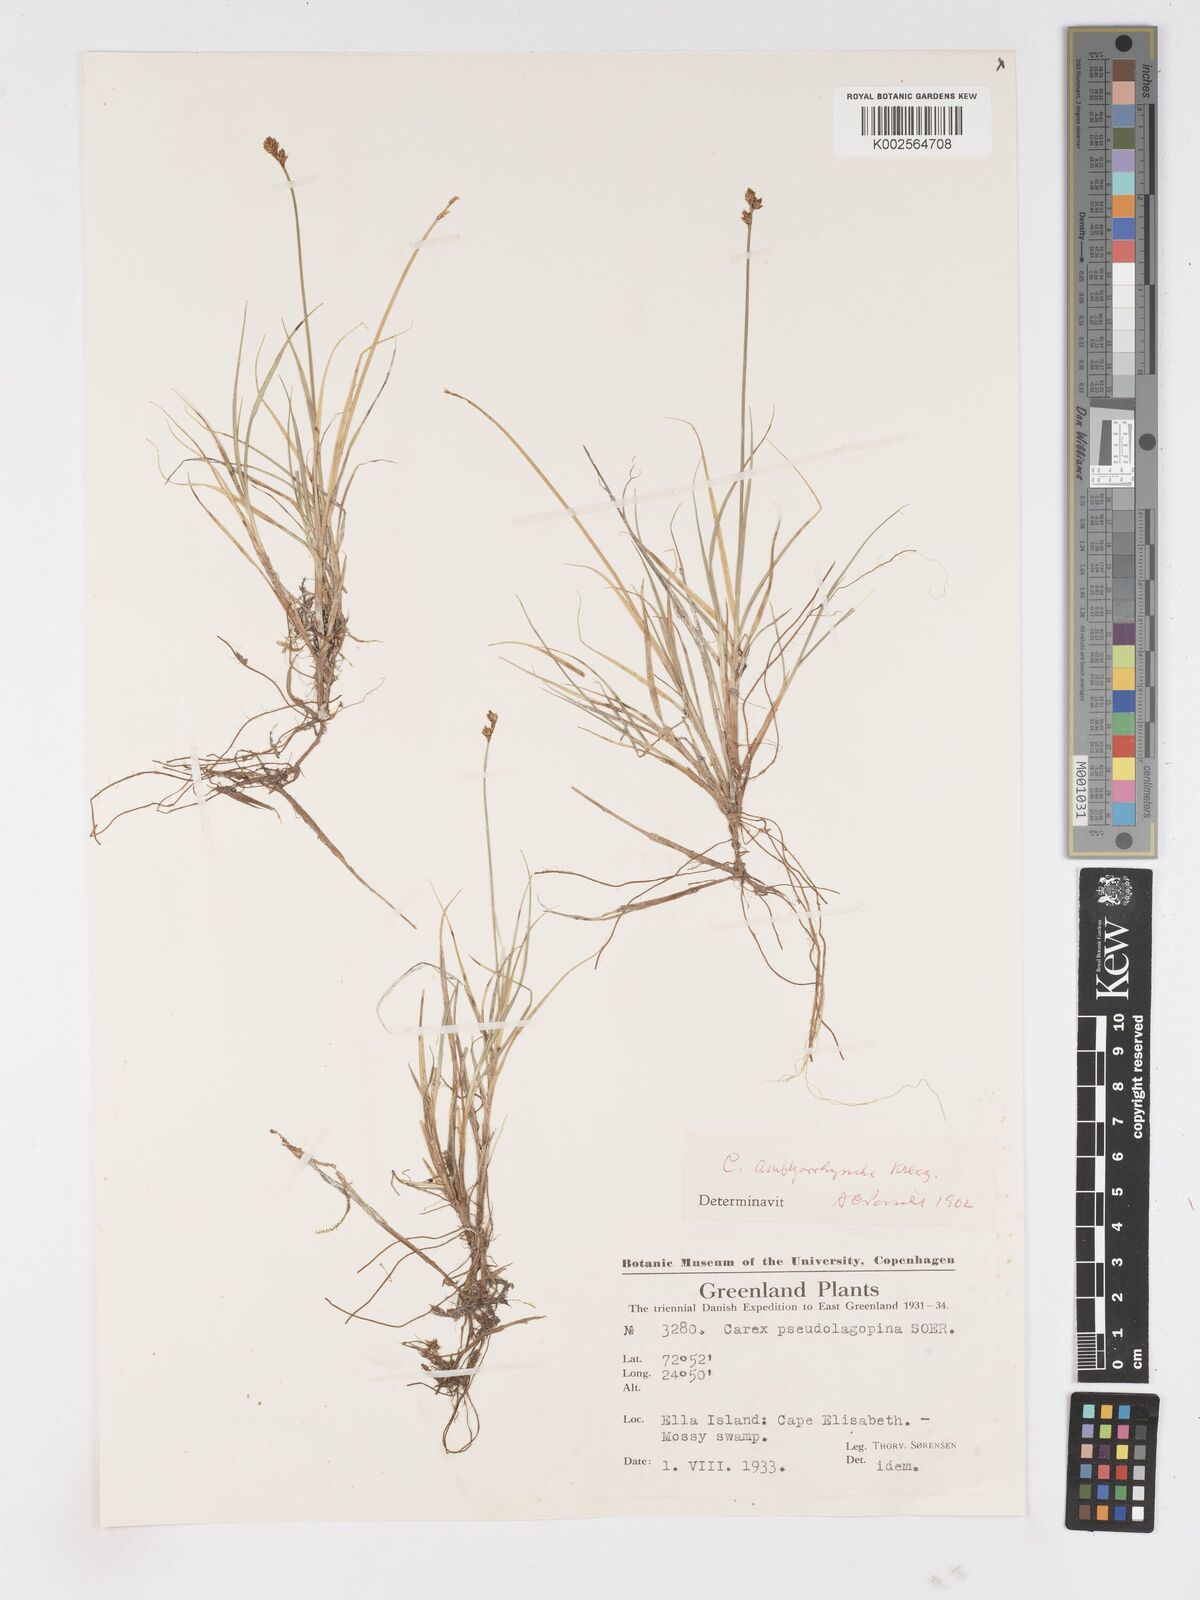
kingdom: Plantae
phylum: Tracheophyta
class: Liliopsida
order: Poales
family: Cyperaceae
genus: Carex
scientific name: Carex marina
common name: Seashore sedge
